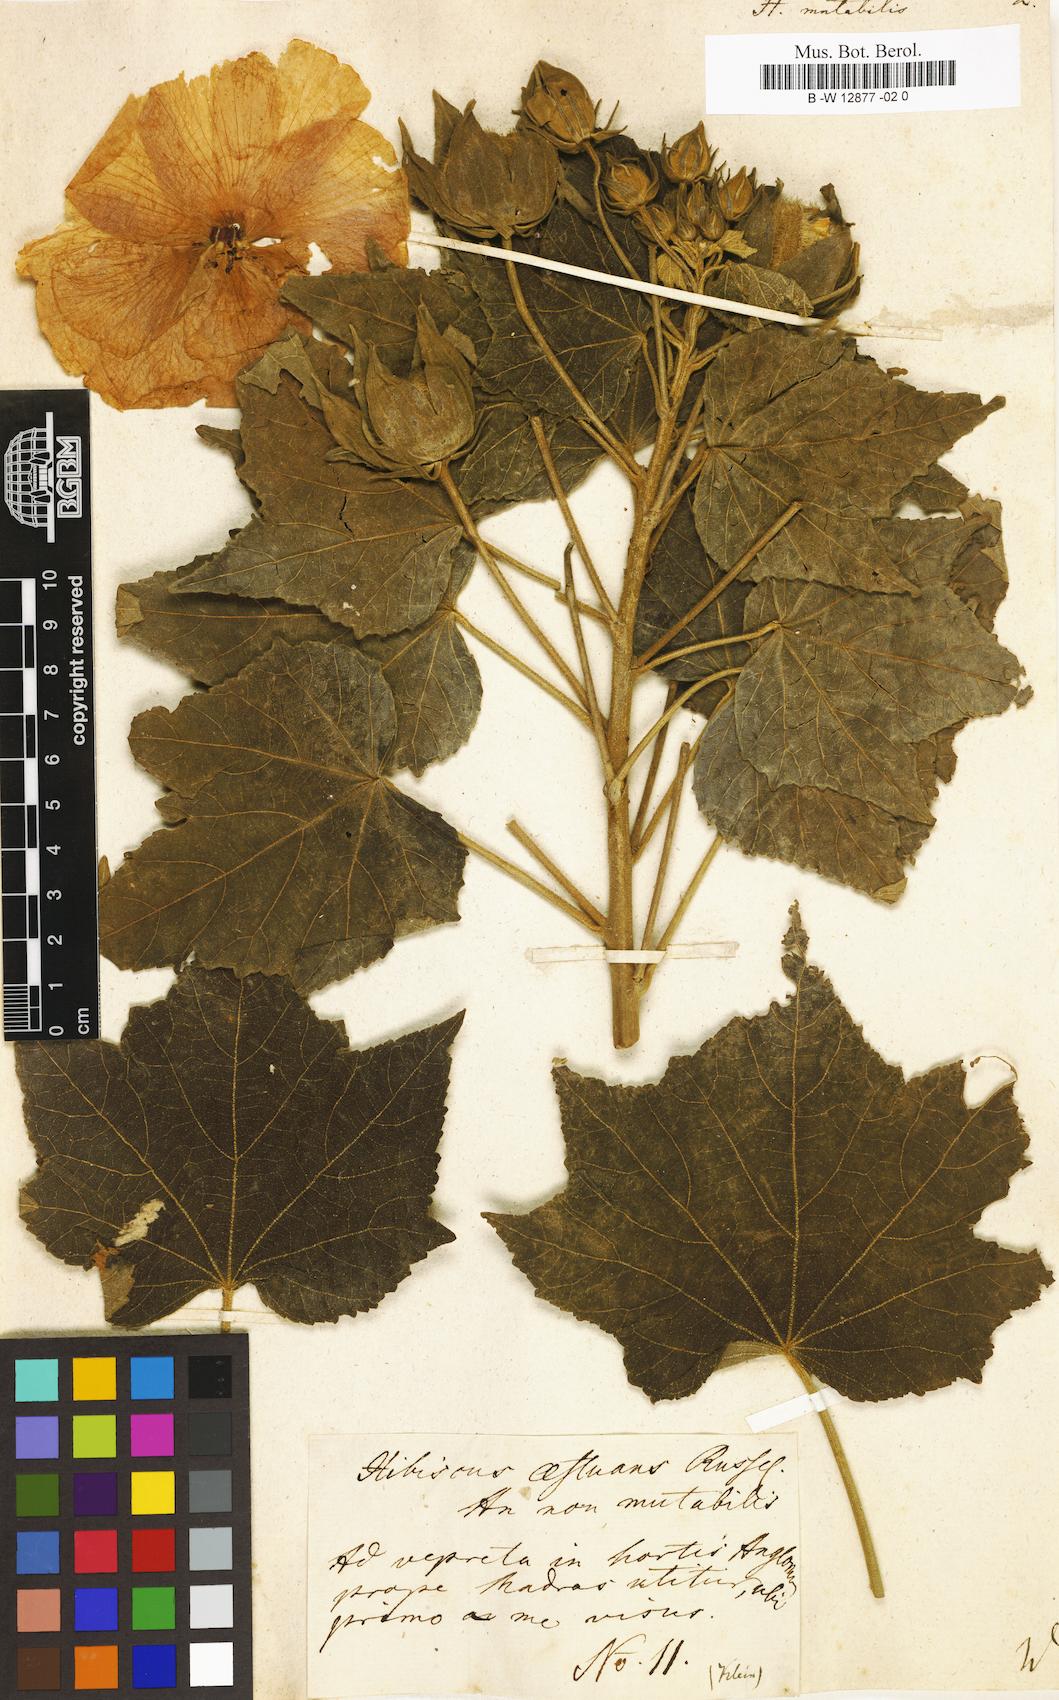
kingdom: Plantae
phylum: Tracheophyta
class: Magnoliopsida
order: Malvales
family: Malvaceae
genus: Hibiscus
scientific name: Hibiscus mutabilis
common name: Dixie rosemallow
